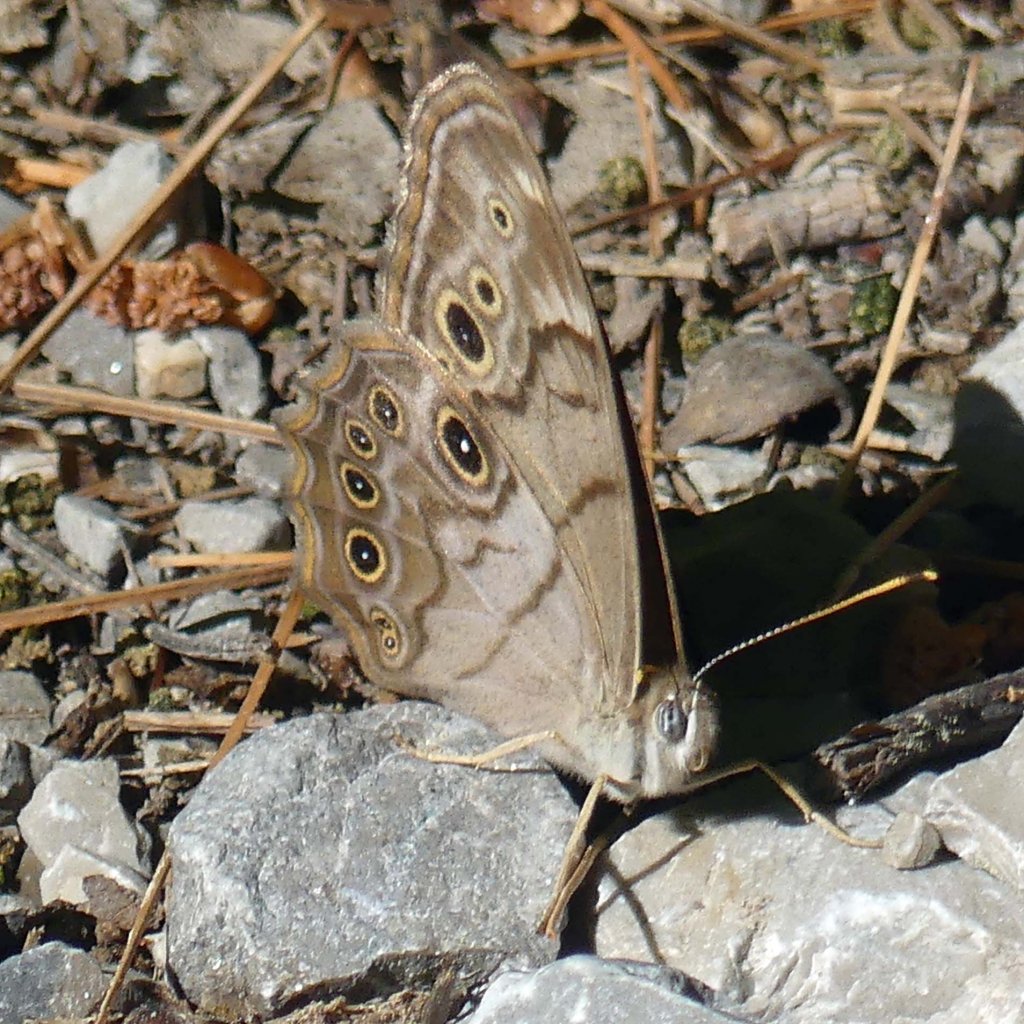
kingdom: Animalia
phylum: Arthropoda
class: Insecta
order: Lepidoptera
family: Nymphalidae
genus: Lethe
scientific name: Lethe anthedon
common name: Northern Pearly-Eye
